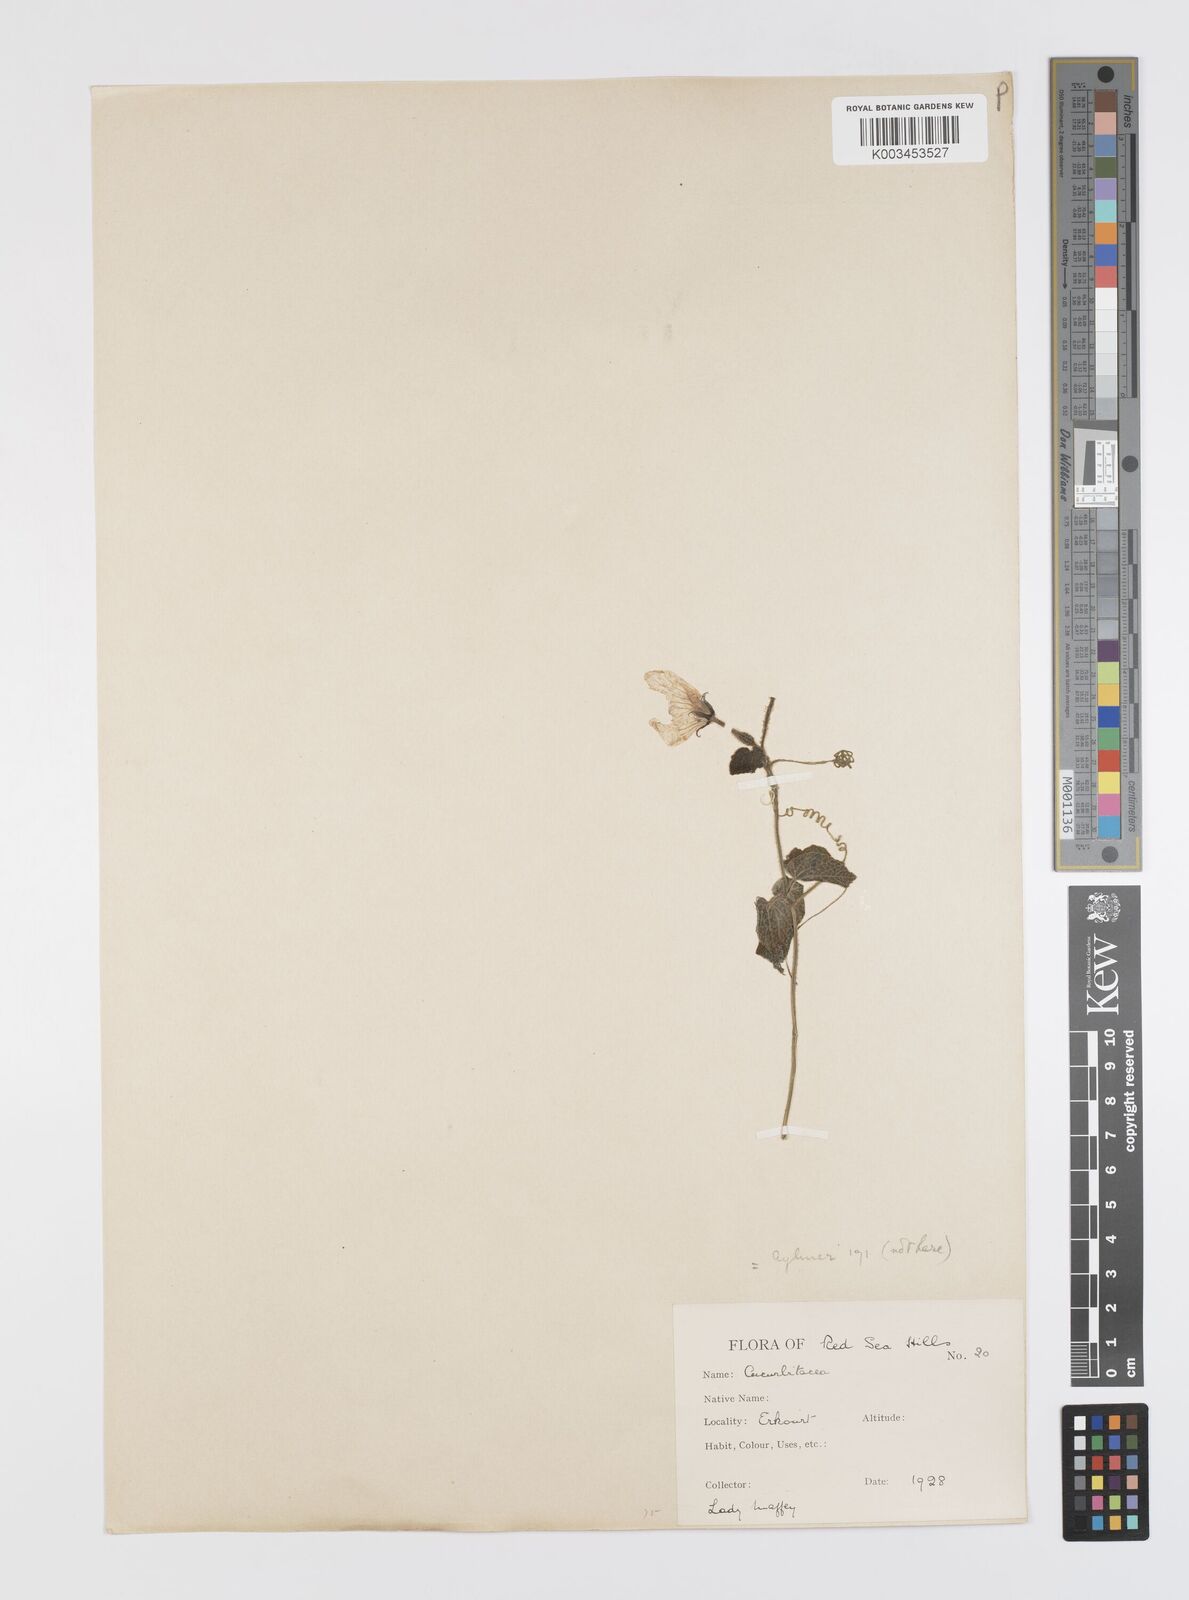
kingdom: Plantae
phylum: Tracheophyta
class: Magnoliopsida
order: Cucurbitales
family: Cucurbitaceae
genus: Momordica
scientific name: Momordica pterocarpa
